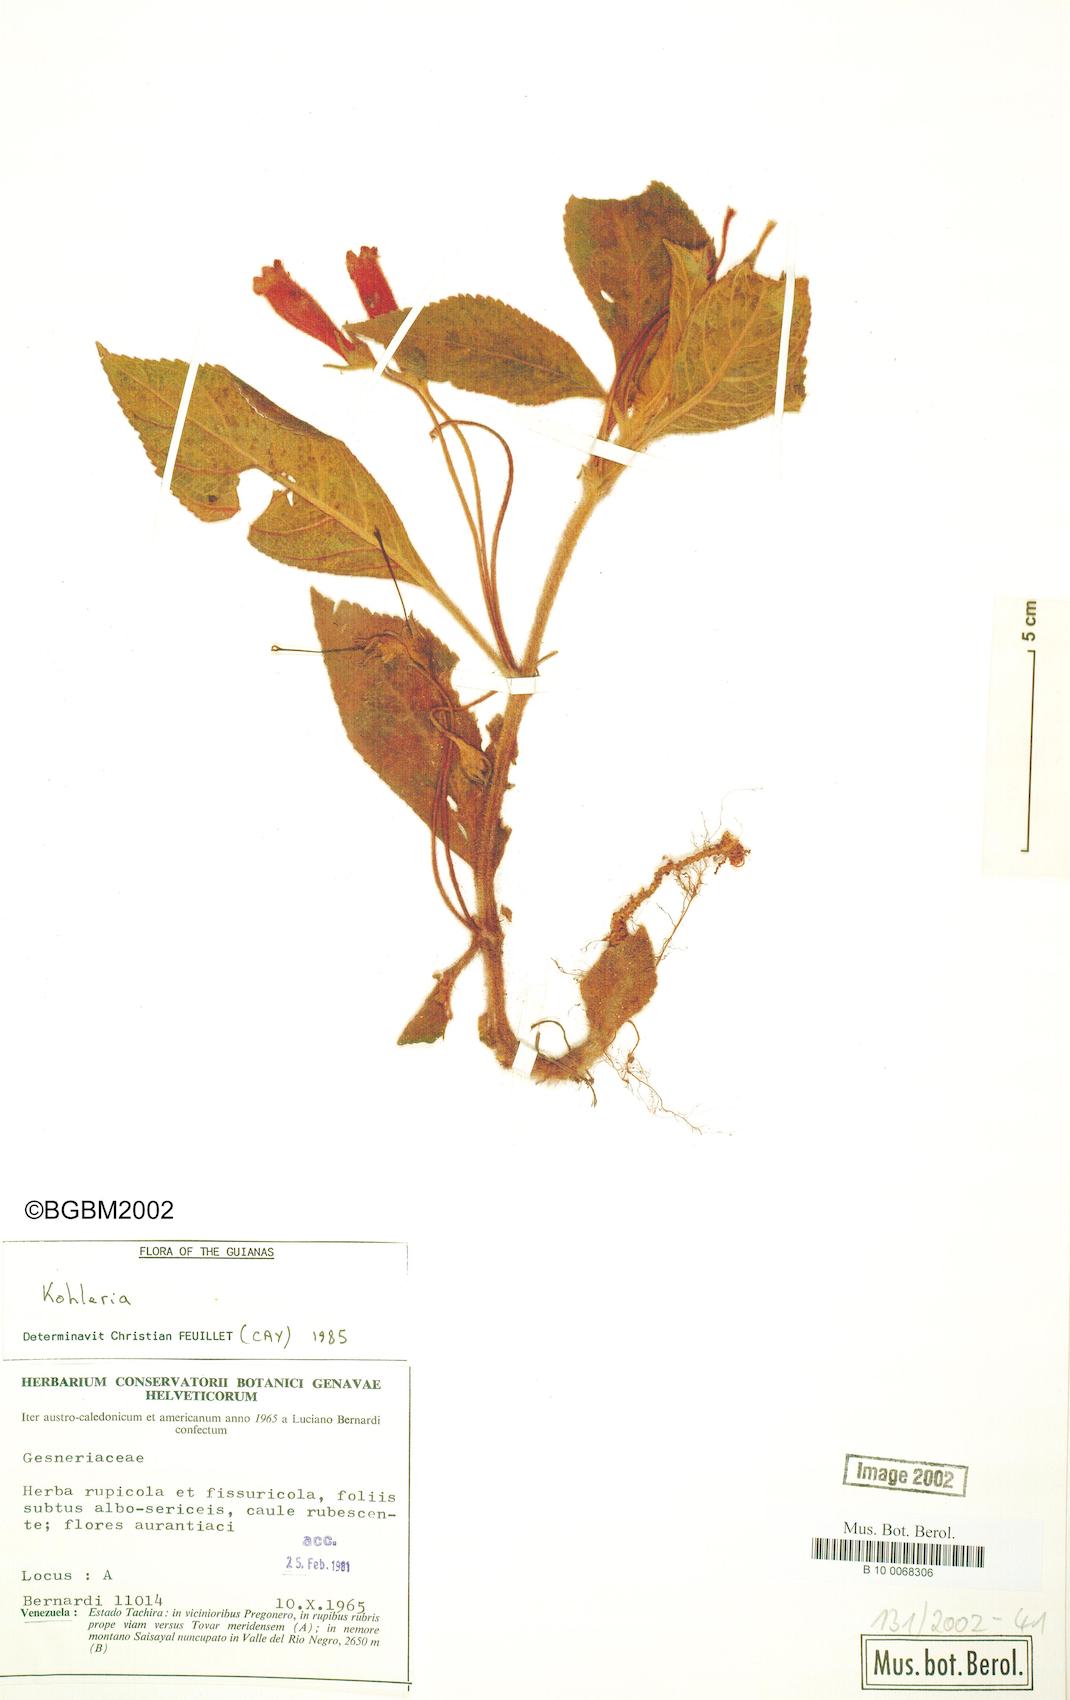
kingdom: Plantae
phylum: Tracheophyta
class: Magnoliopsida
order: Lamiales
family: Gesneriaceae
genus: Kohleria
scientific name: Kohleria
